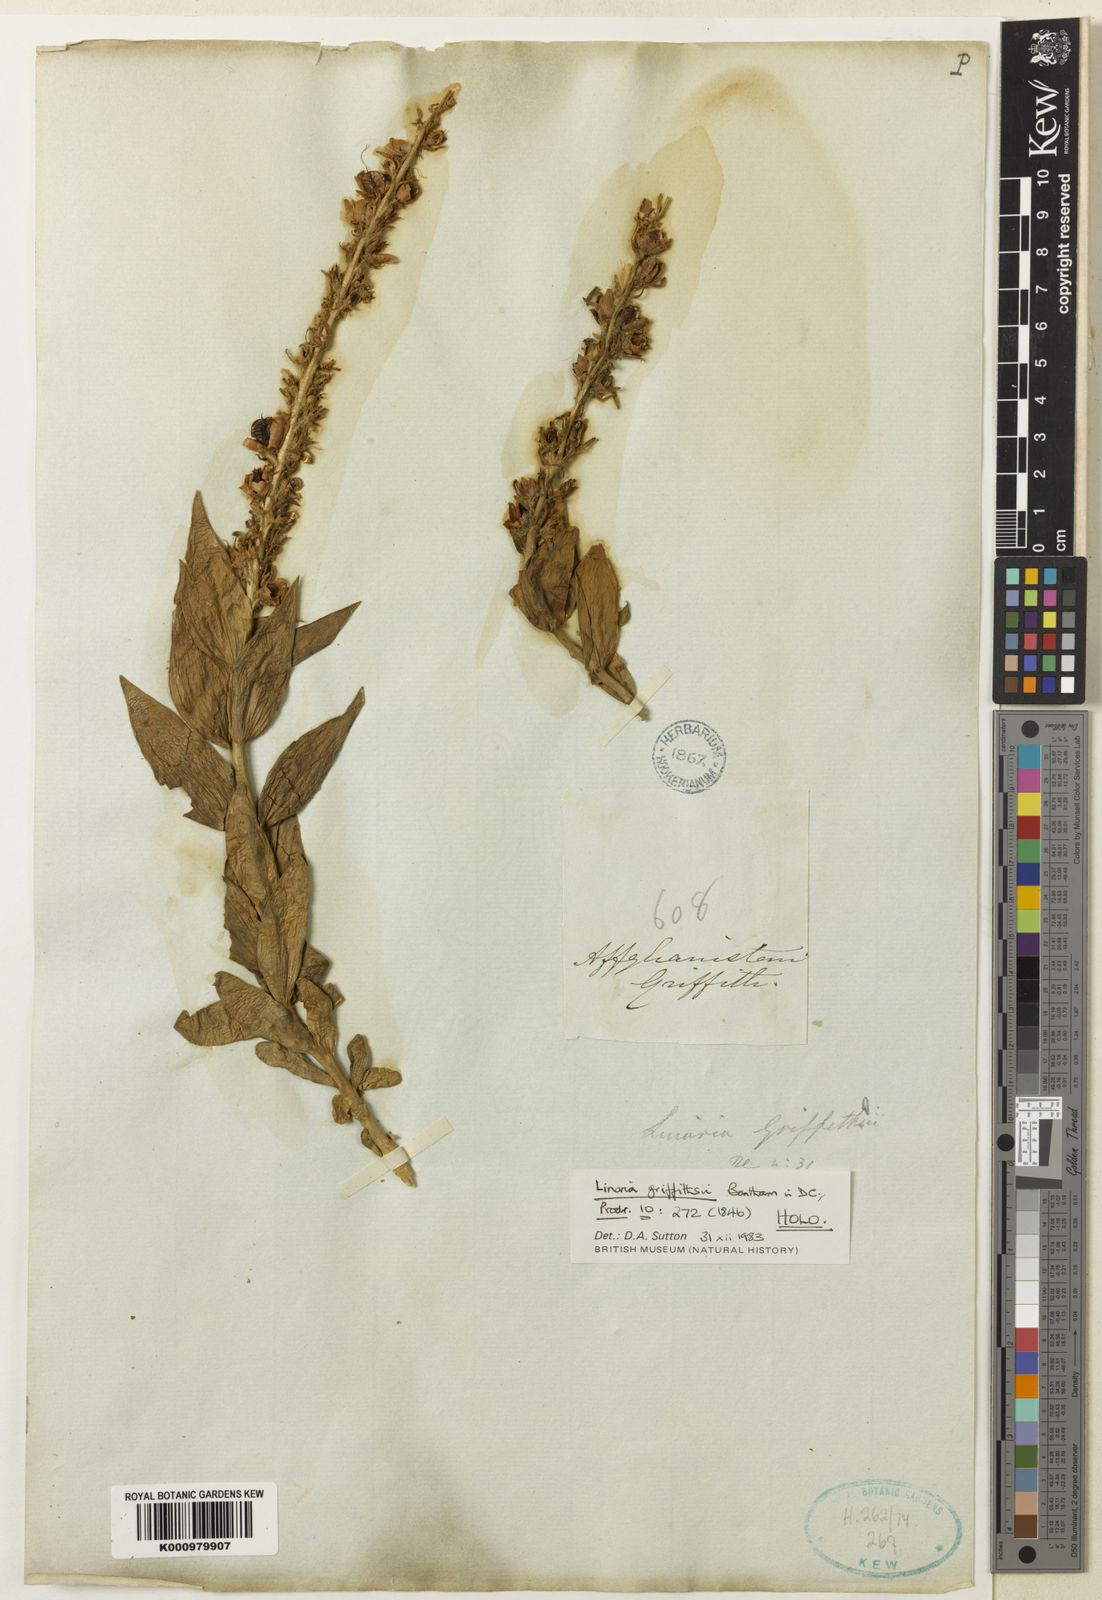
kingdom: Plantae
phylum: Tracheophyta
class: Magnoliopsida
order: Lamiales
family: Plantaginaceae
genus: Linaria
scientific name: Linaria griffithii
